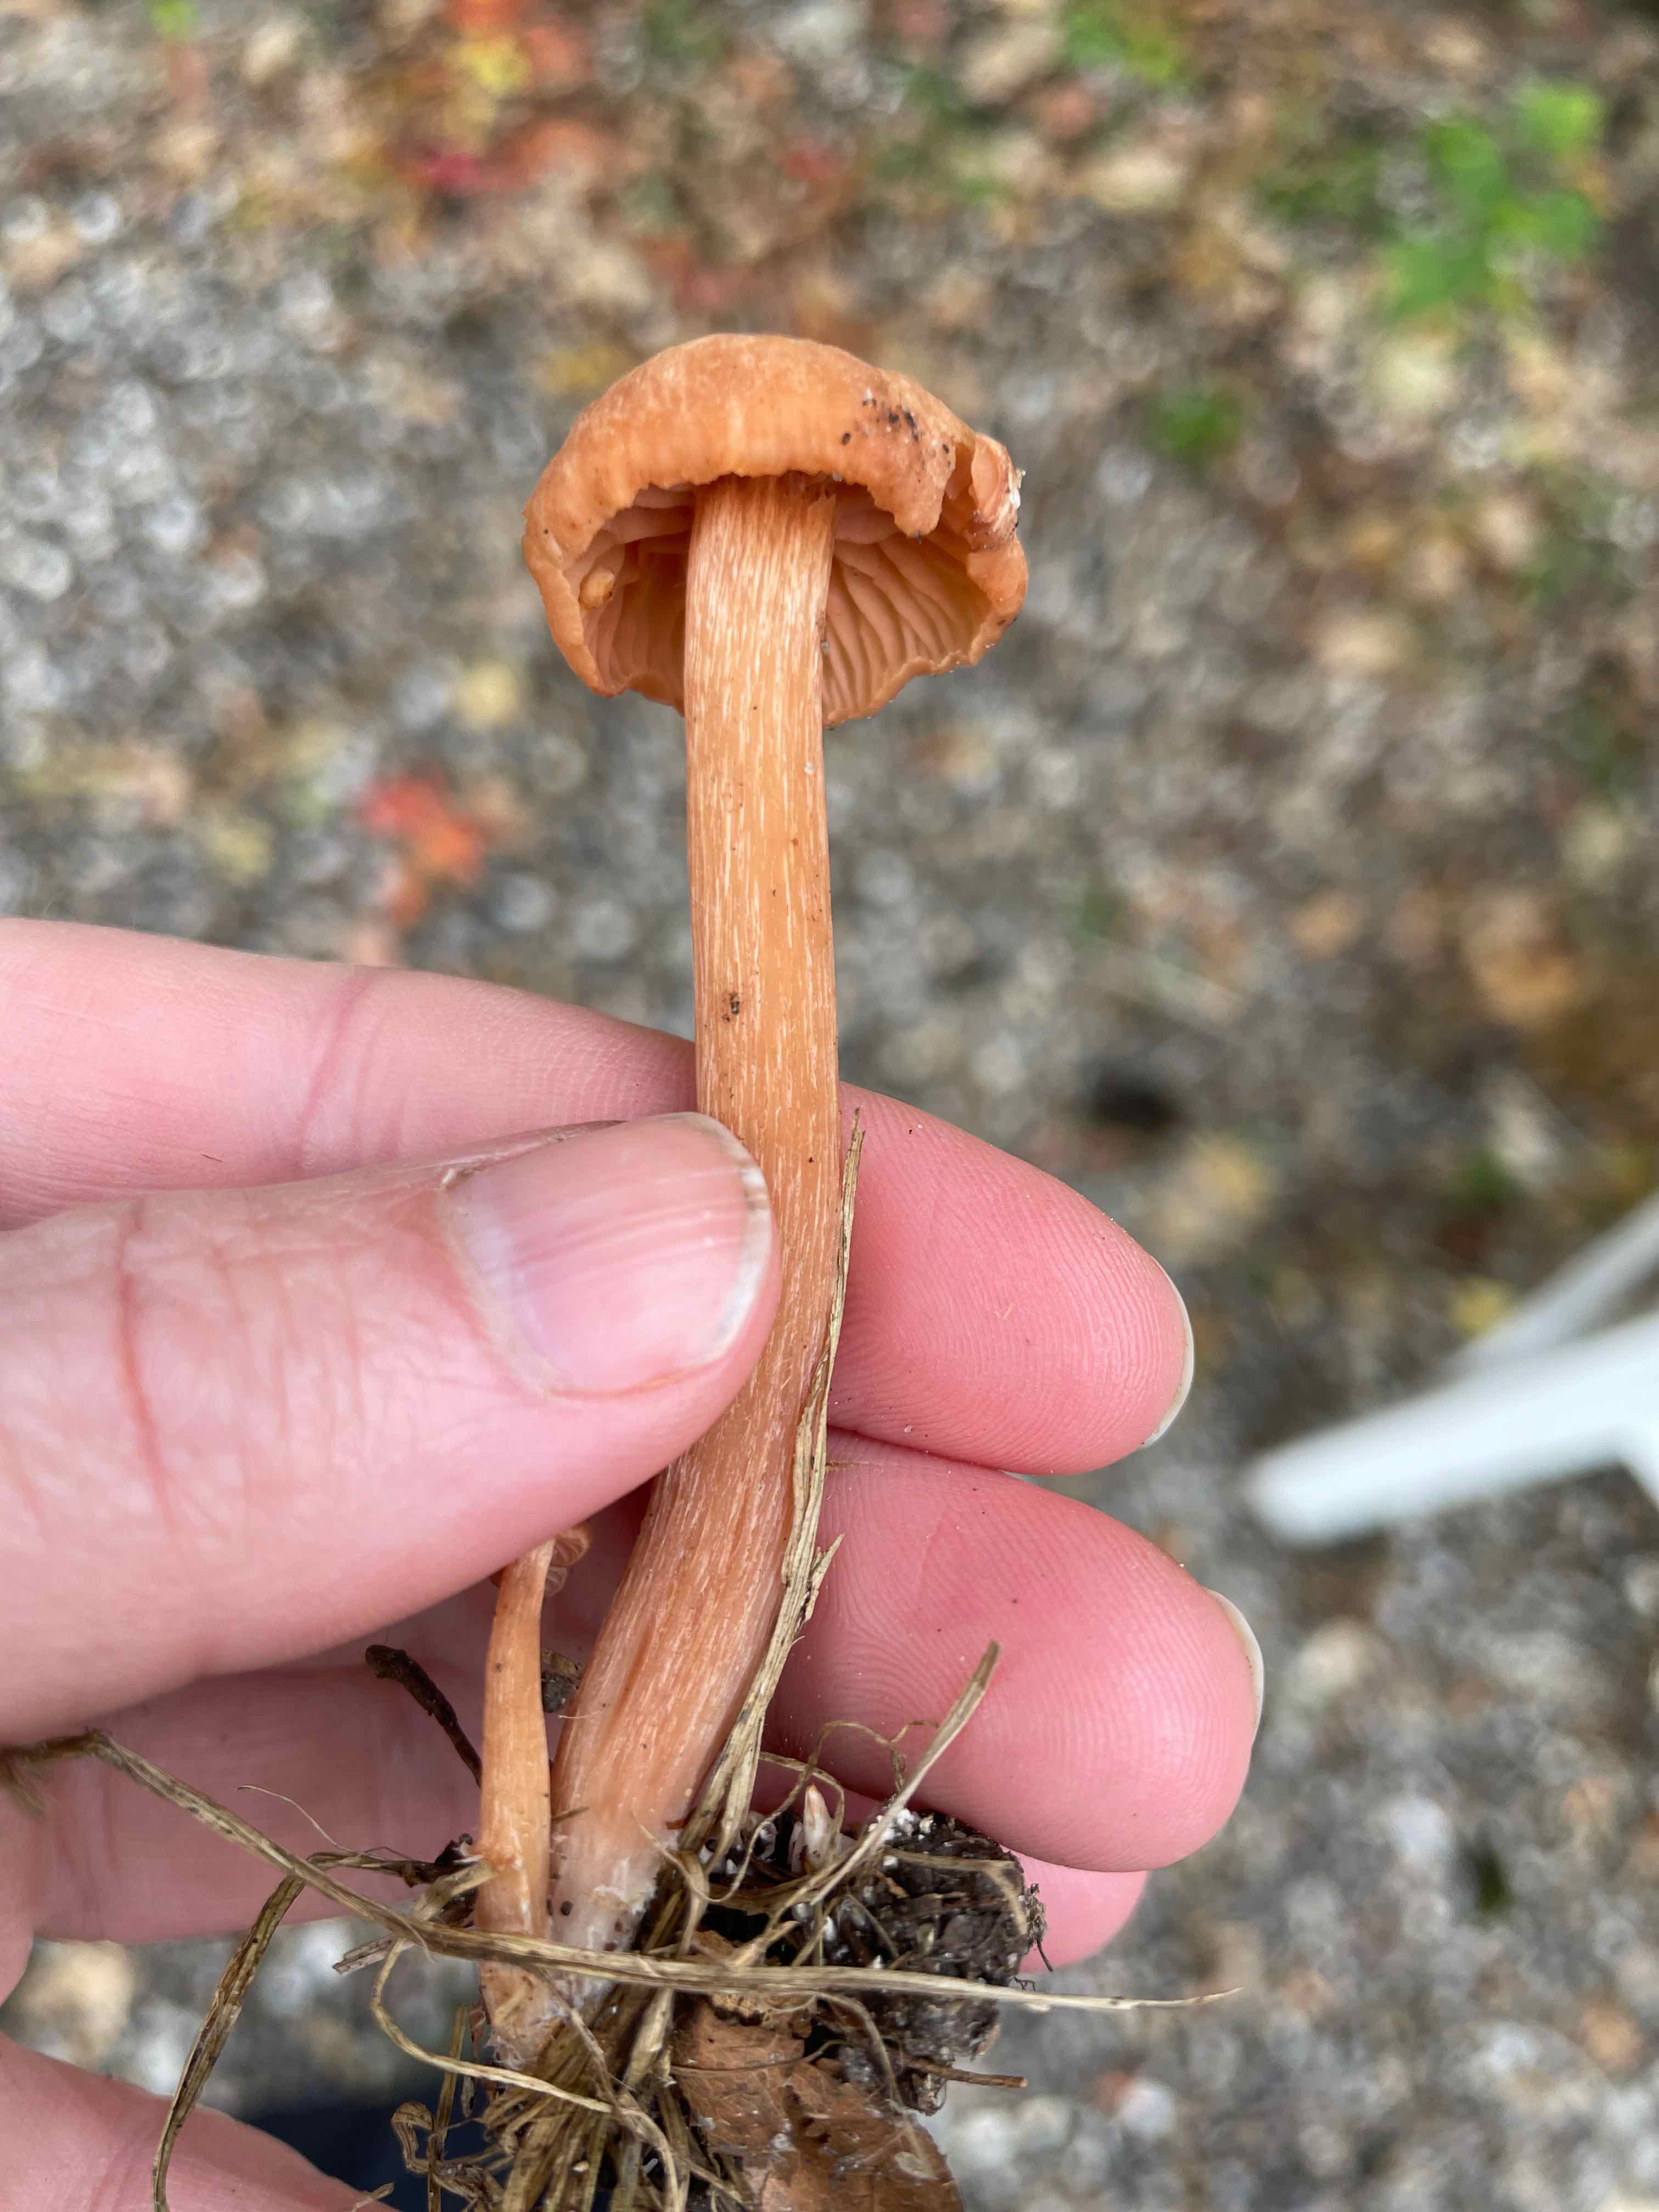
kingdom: Fungi
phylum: Basidiomycota
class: Agaricomycetes
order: Agaricales
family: Hydnangiaceae
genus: Laccaria
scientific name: Laccaria
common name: ametysthat
